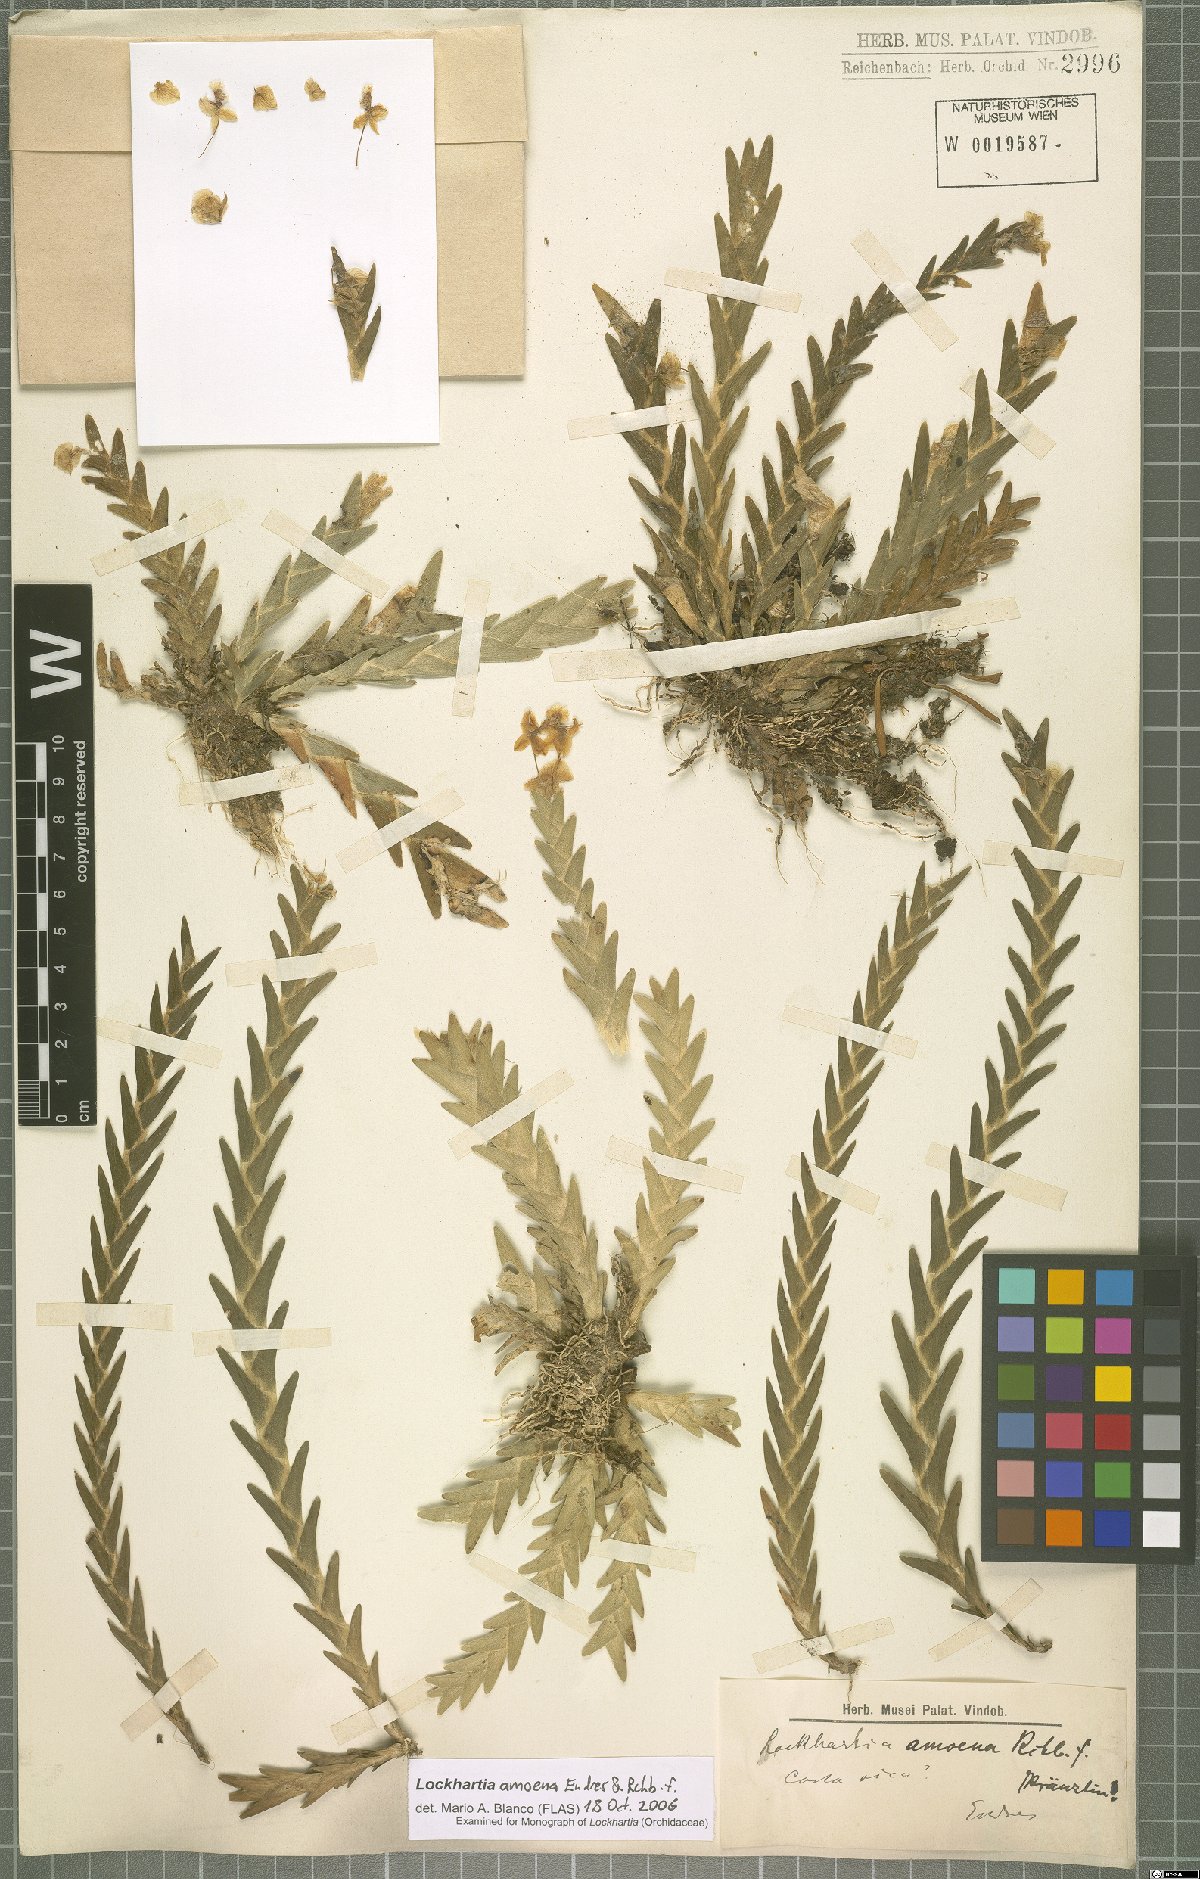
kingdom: Plantae
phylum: Tracheophyta
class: Liliopsida
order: Asparagales
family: Orchidaceae
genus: Lockhartia
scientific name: Lockhartia amoena
